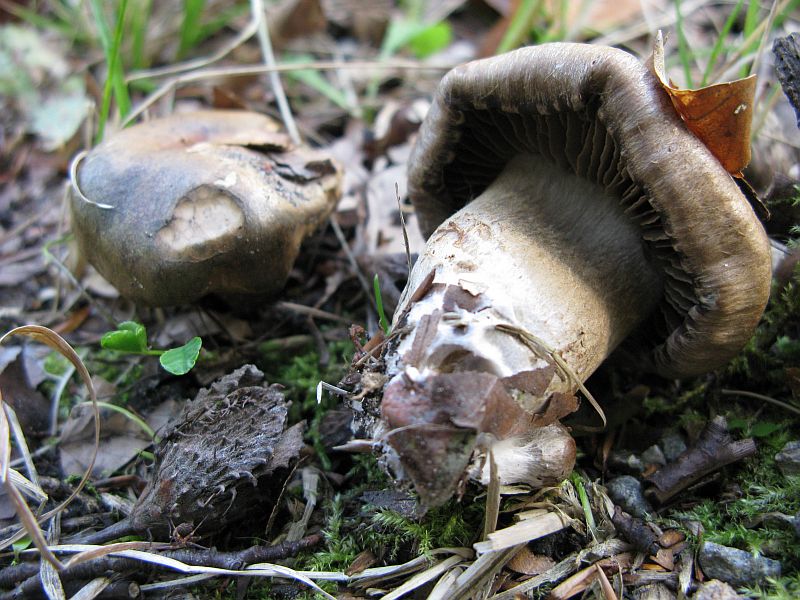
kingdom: Fungi
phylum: Basidiomycota
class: Agaricomycetes
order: Agaricales
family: Cortinariaceae
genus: Cortinarius
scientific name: Cortinarius
